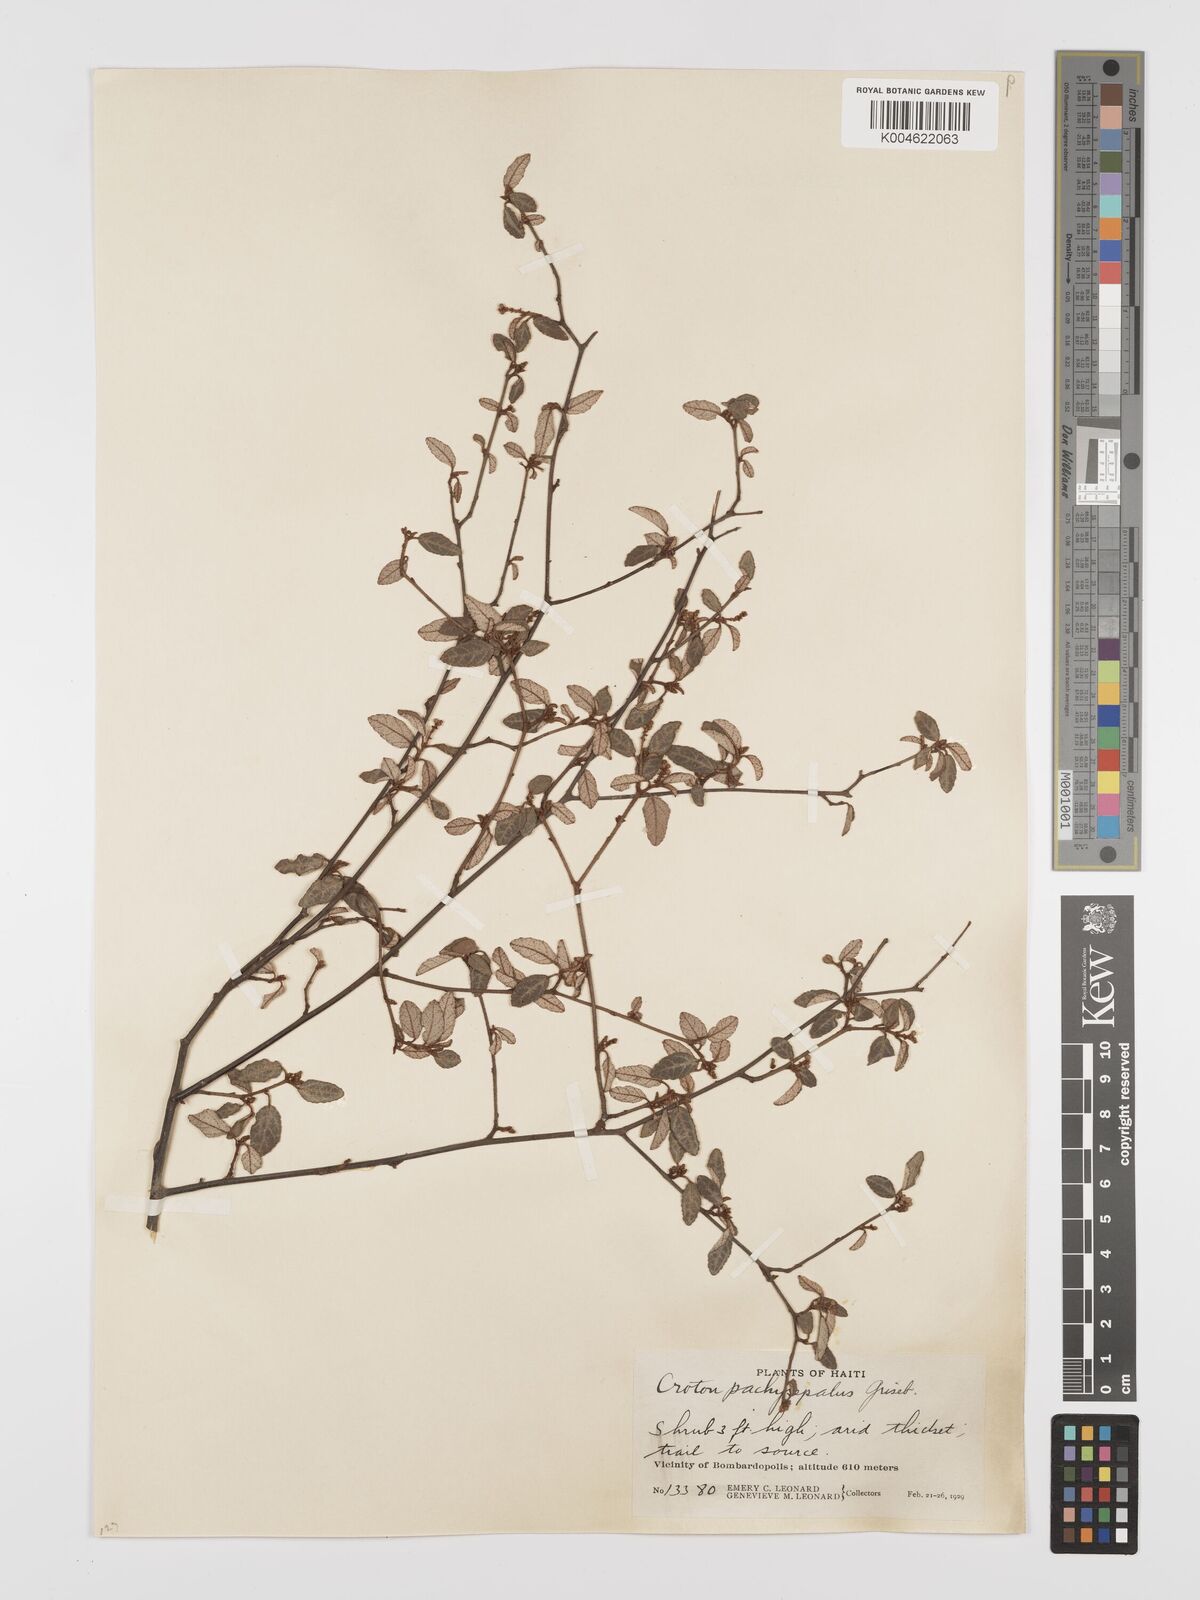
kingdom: Plantae
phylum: Tracheophyta
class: Magnoliopsida
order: Malpighiales
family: Euphorbiaceae
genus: Croton
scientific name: Croton pachysepalus
